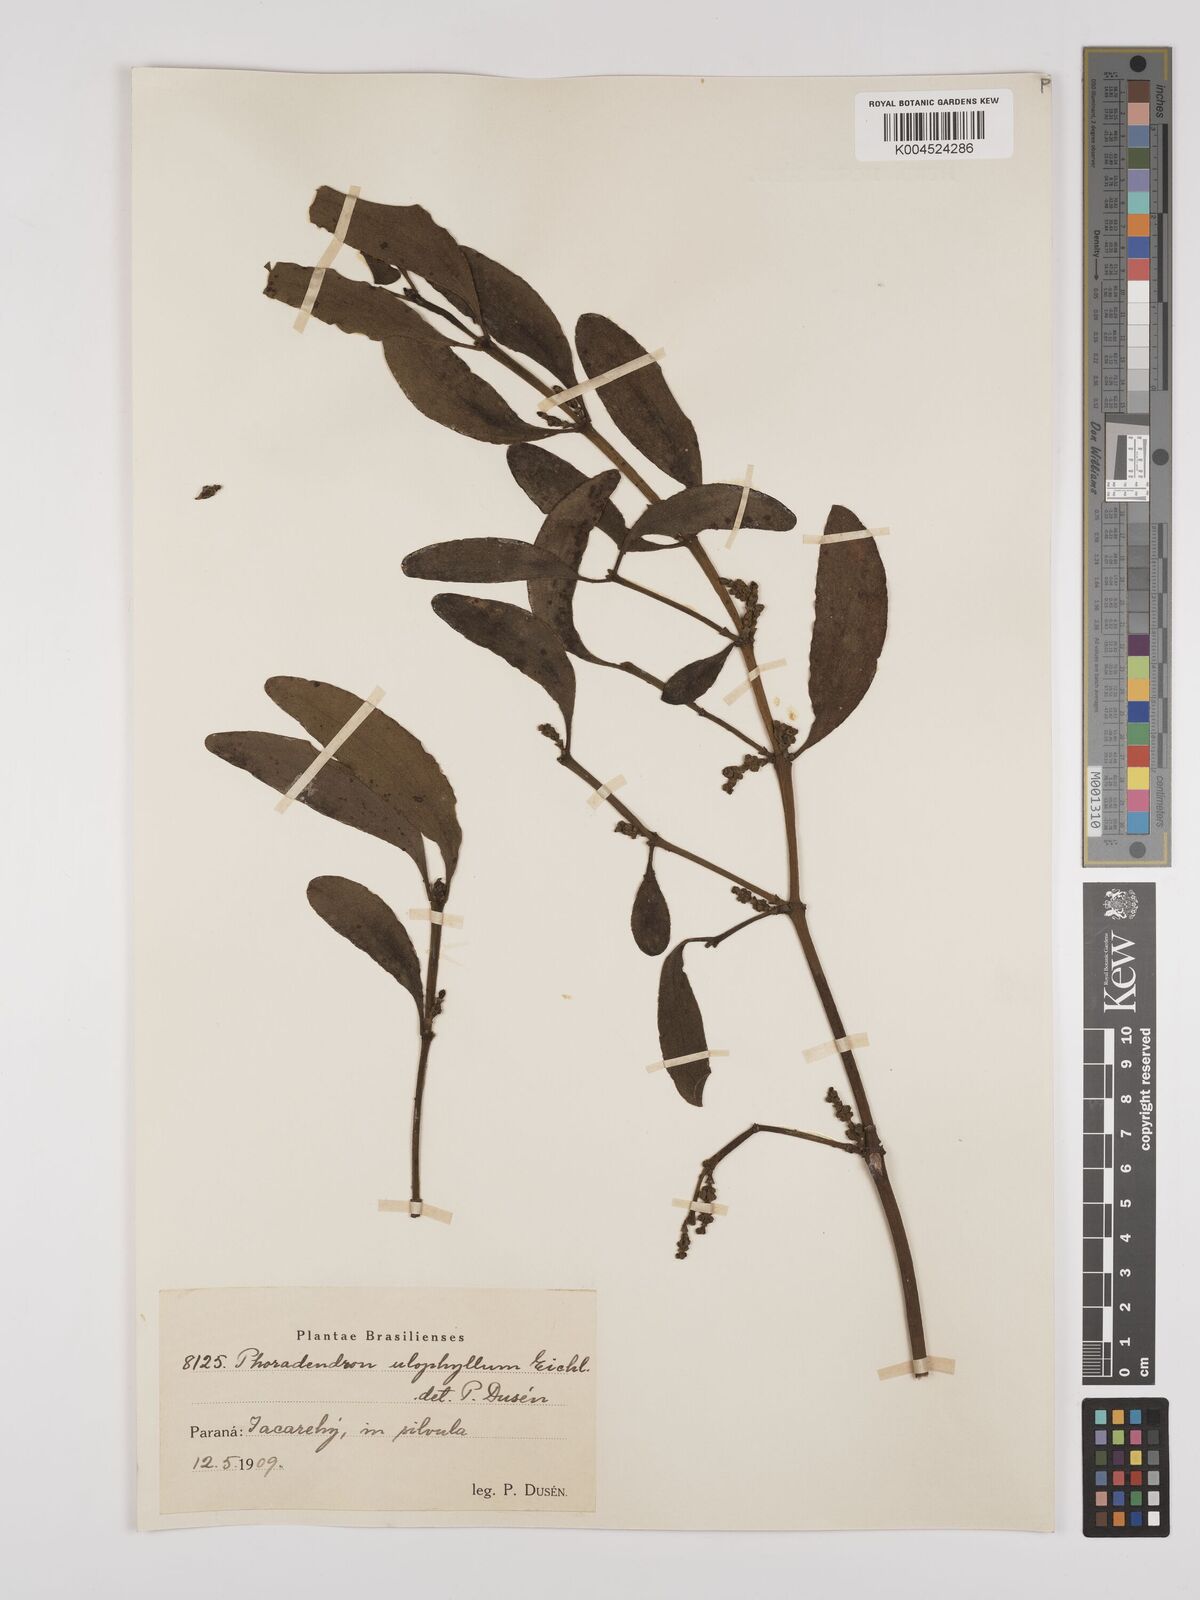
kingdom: Plantae
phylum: Tracheophyta
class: Magnoliopsida
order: Santalales
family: Viscaceae
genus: Phoradendron
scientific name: Phoradendron bathyoryctum
